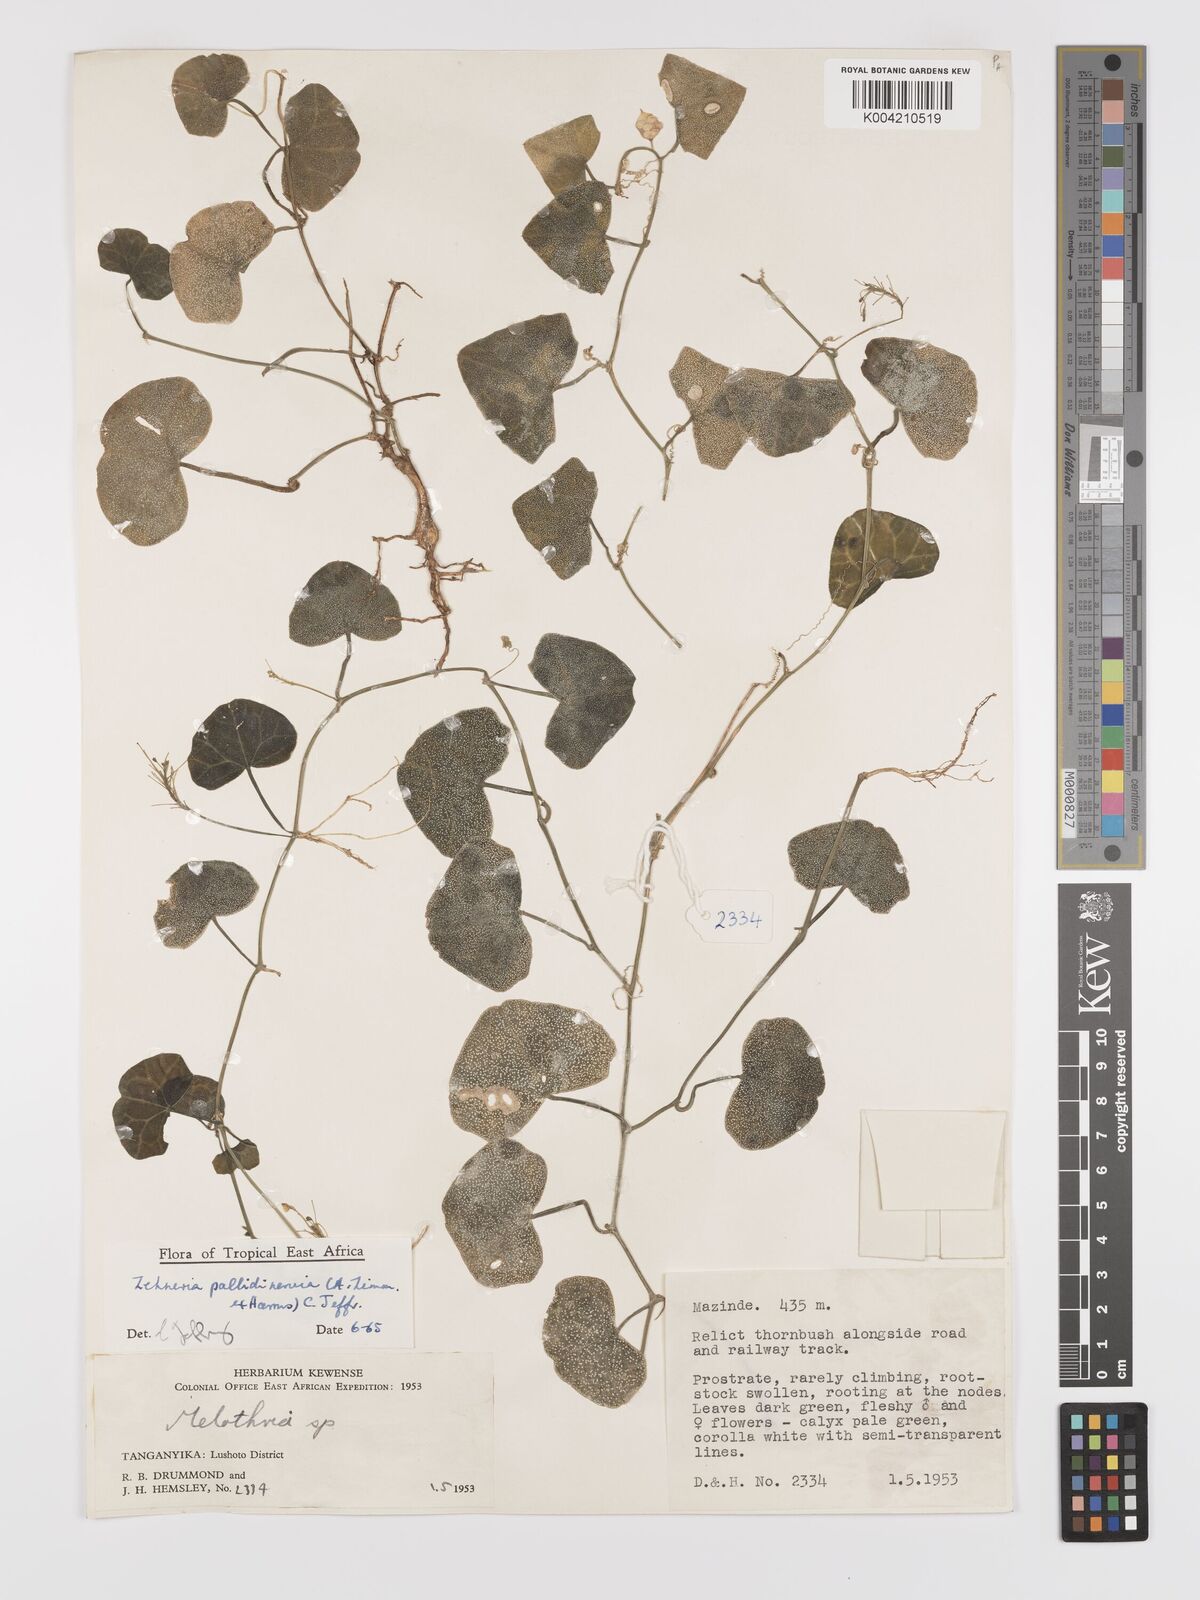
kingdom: Plantae
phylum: Tracheophyta
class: Magnoliopsida
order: Cucurbitales
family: Cucurbitaceae
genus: Zehneria
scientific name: Zehneria pallidinervia
